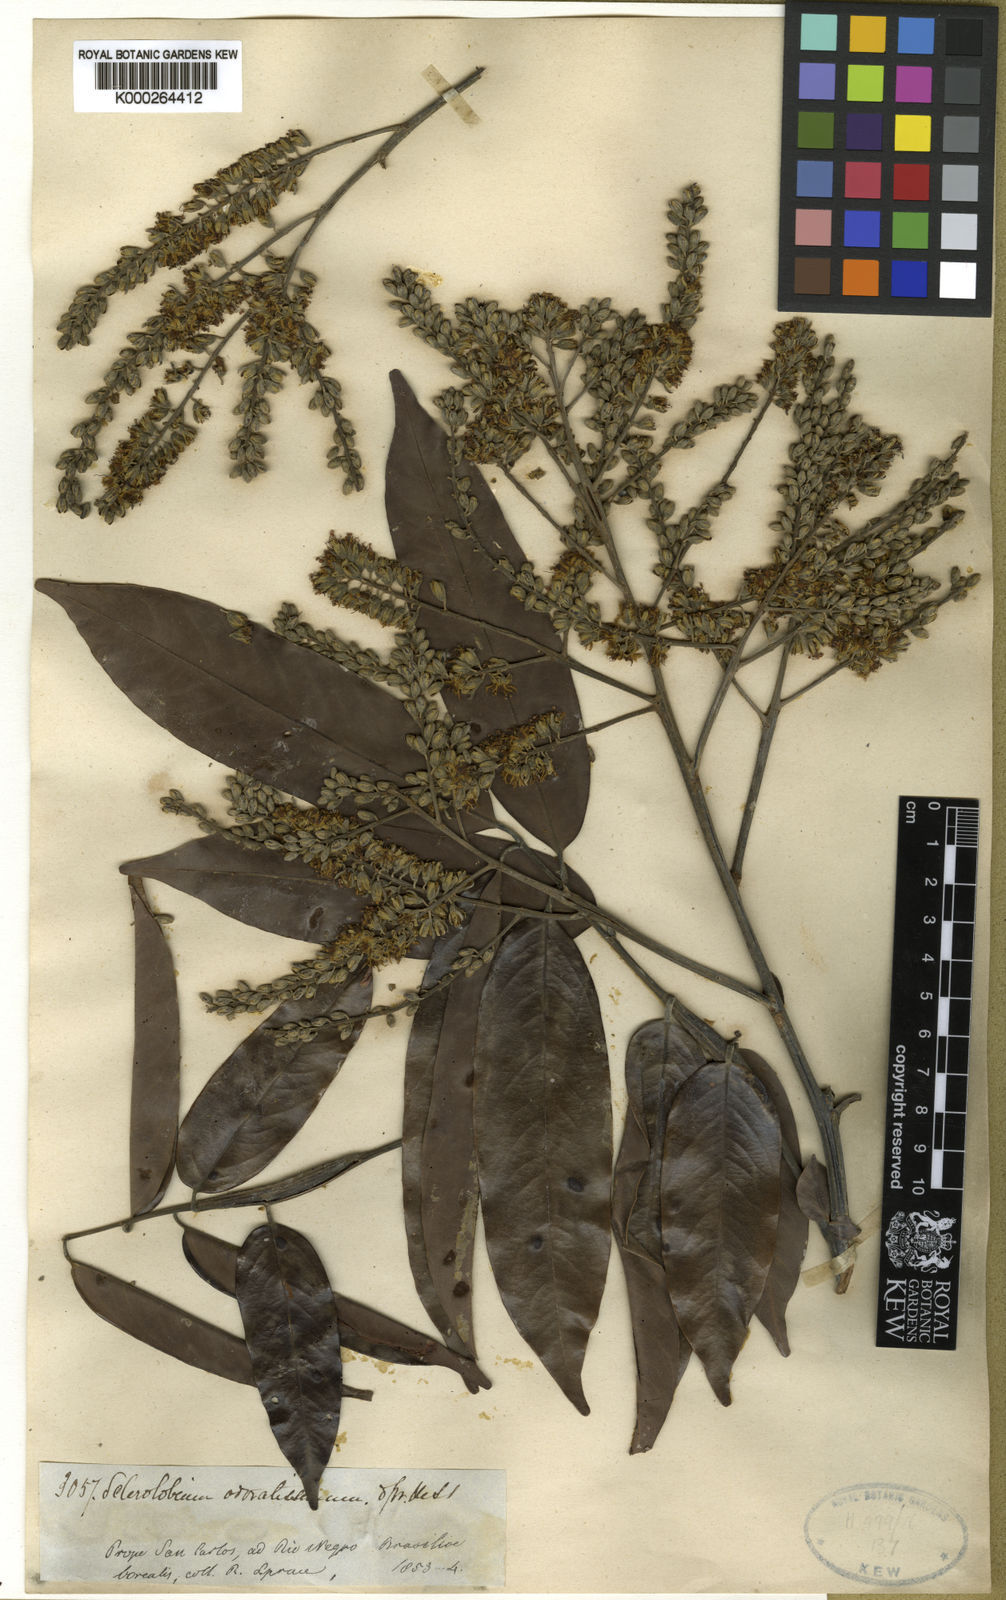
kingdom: Plantae
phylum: Tracheophyta
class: Magnoliopsida
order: Fabales
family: Fabaceae
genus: Tachigali
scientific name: Tachigali odoratissima
